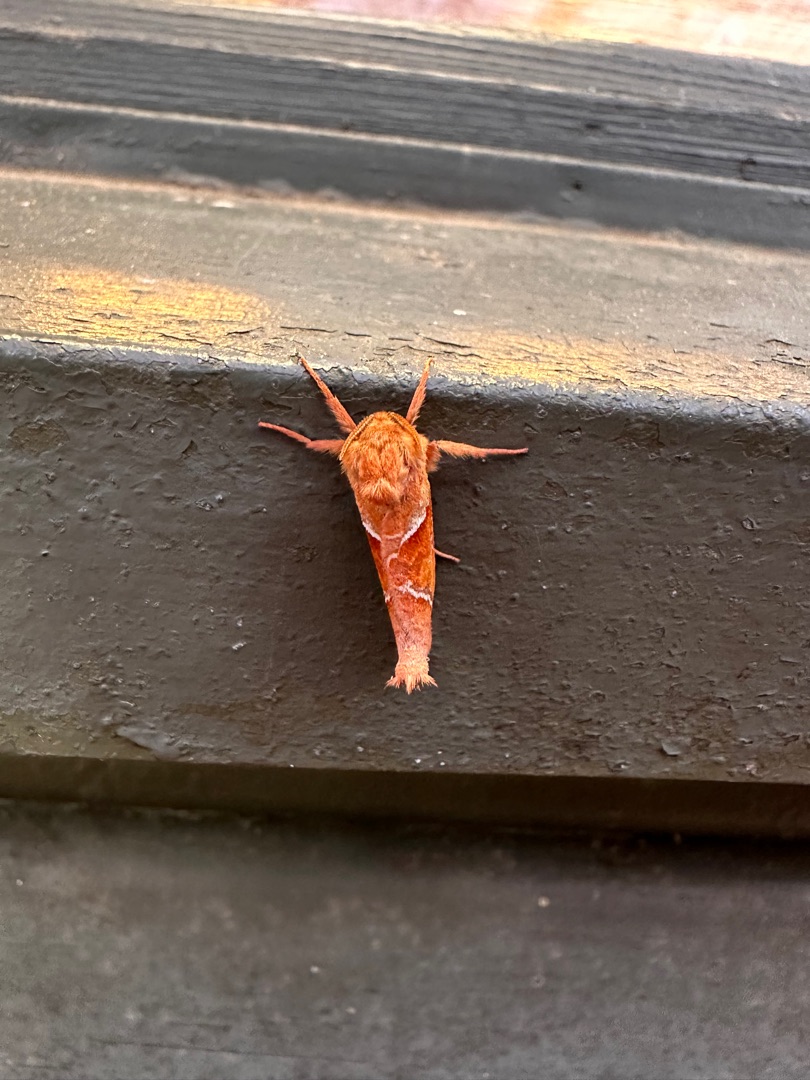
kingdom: Animalia
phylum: Arthropoda
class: Insecta
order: Lepidoptera
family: Hepialidae
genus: Triodia
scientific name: Triodia sylvina
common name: Skræpperodæder
